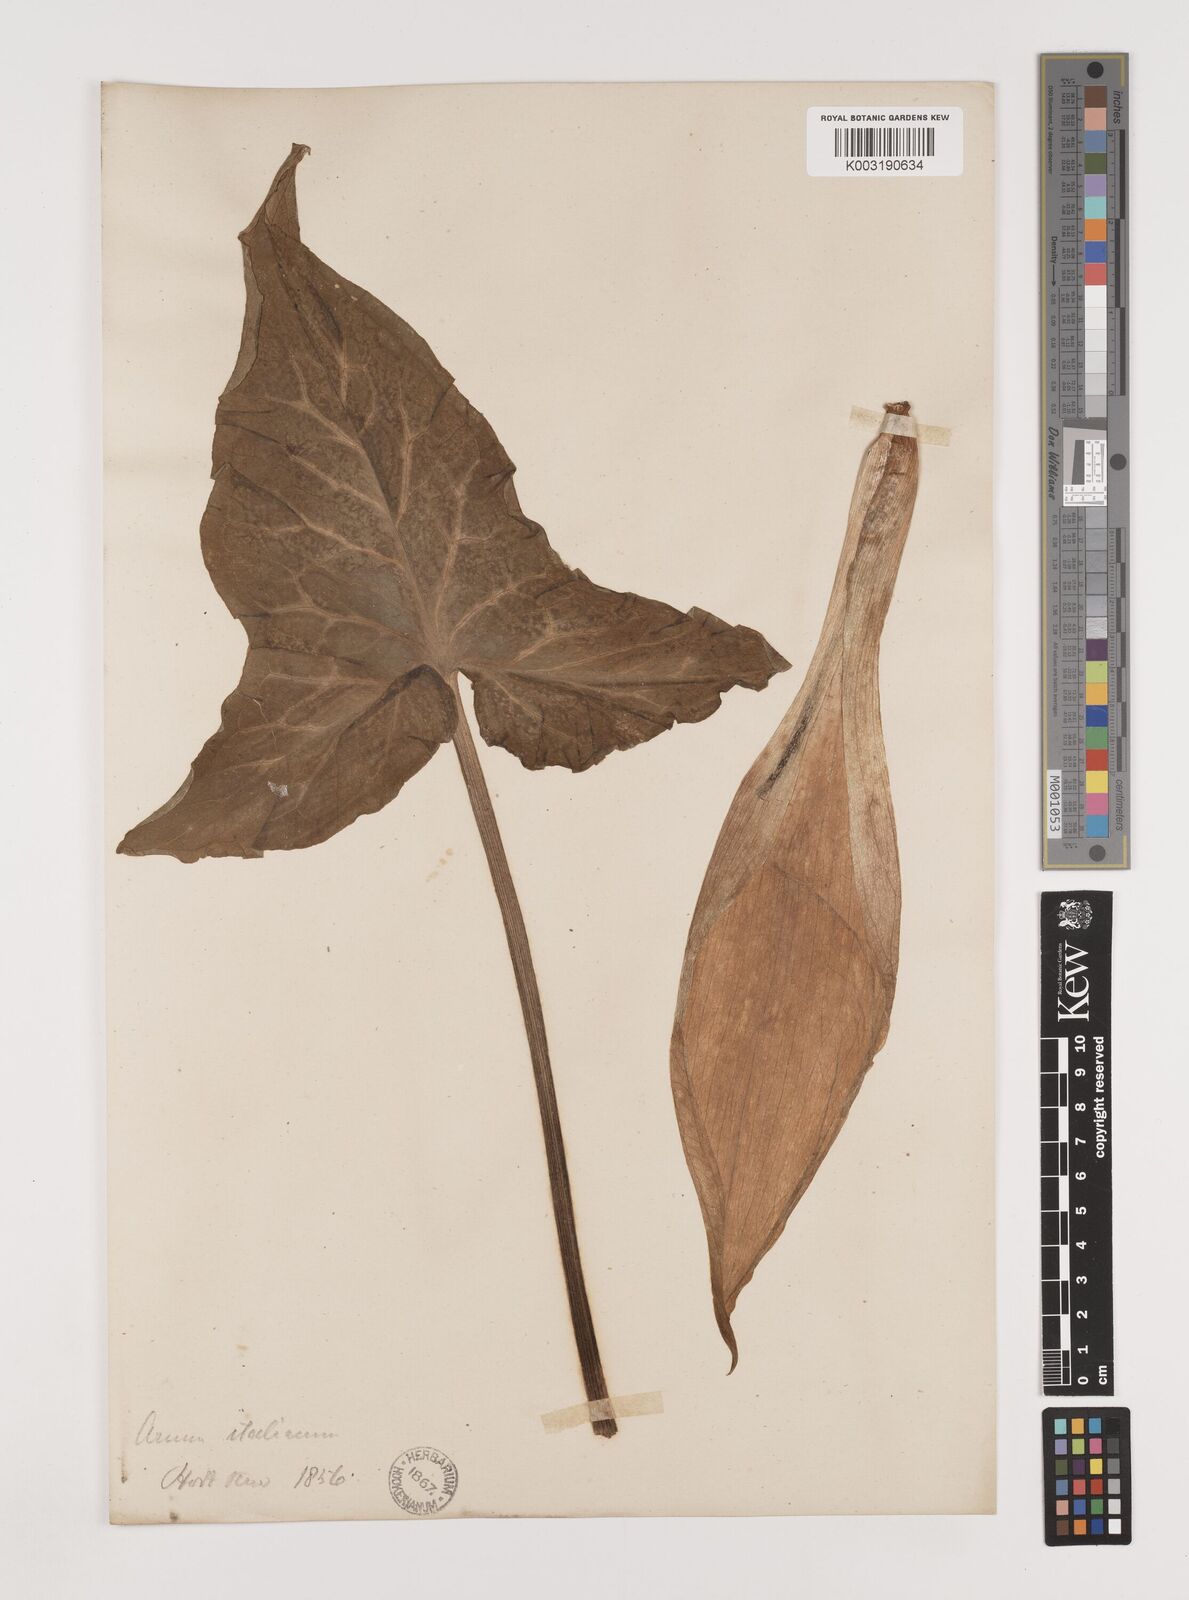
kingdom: Plantae
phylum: Tracheophyta
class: Liliopsida
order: Alismatales
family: Araceae
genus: Arum
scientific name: Arum italicum
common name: Italian lords-and-ladies
